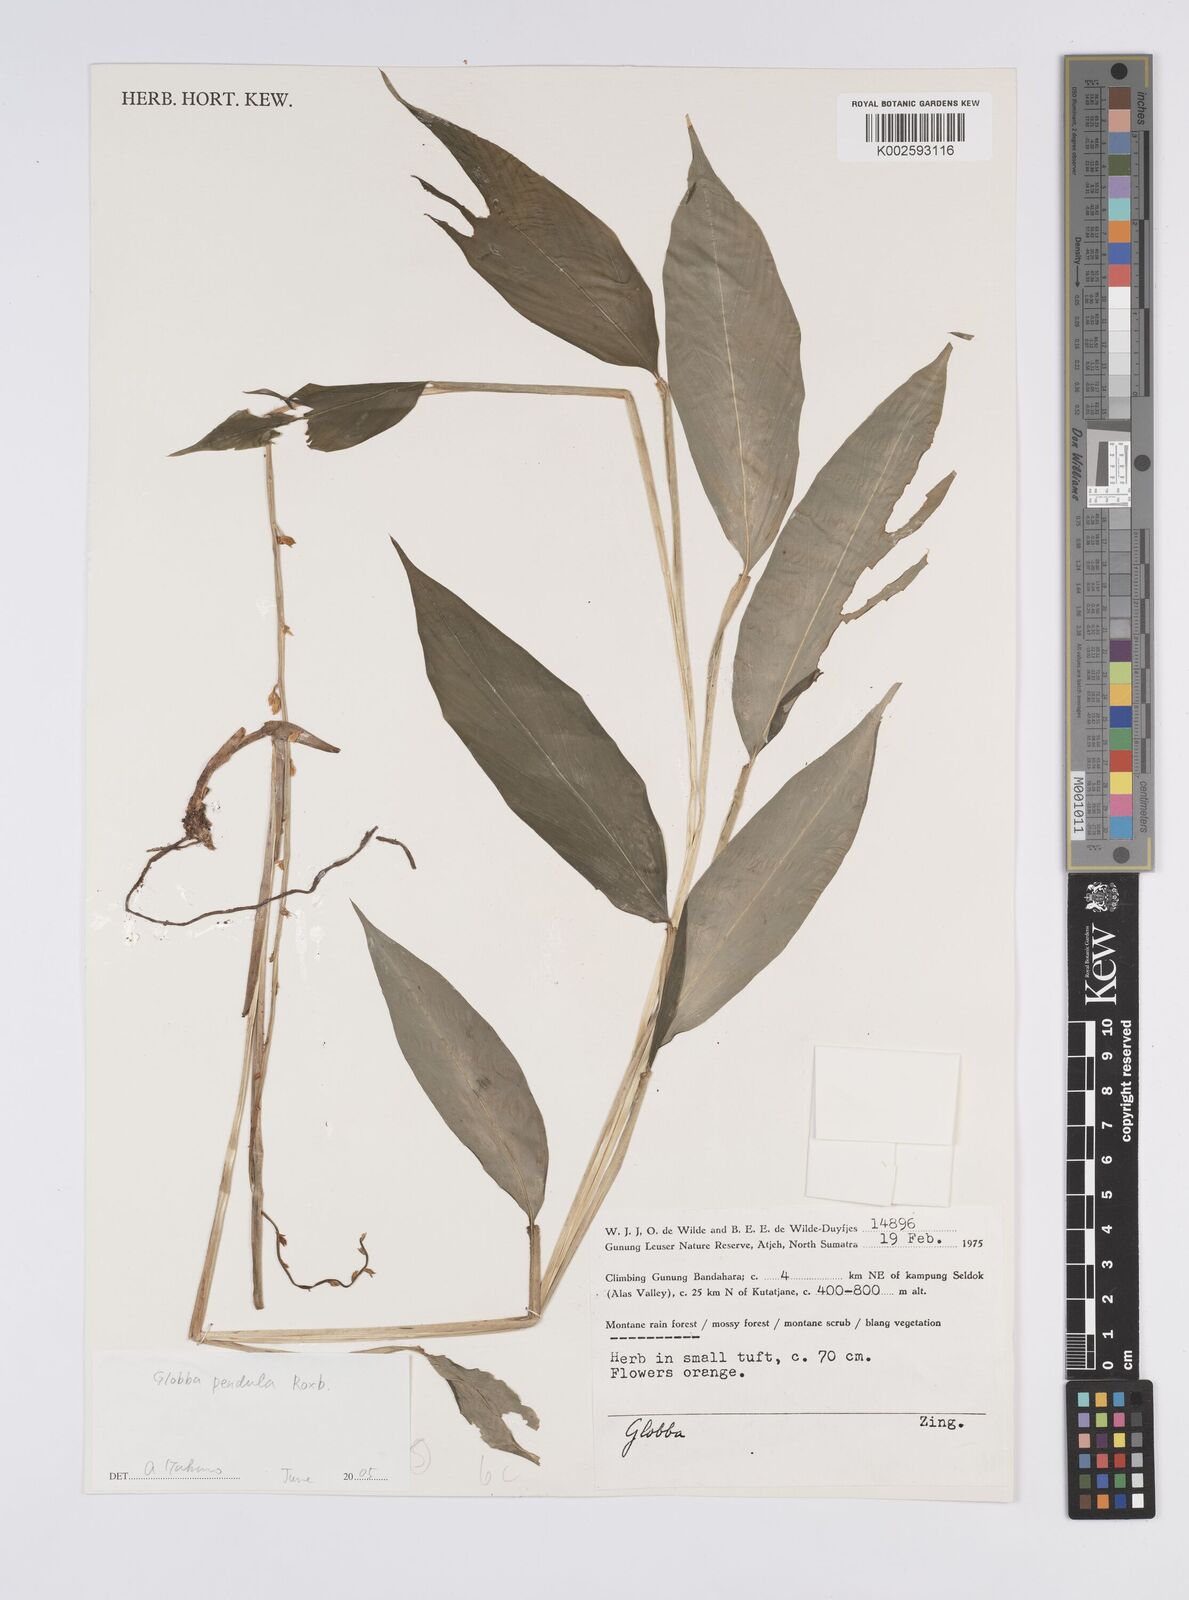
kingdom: Plantae
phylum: Tracheophyta
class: Liliopsida
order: Zingiberales
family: Zingiberaceae
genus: Globba
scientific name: Globba pendula
